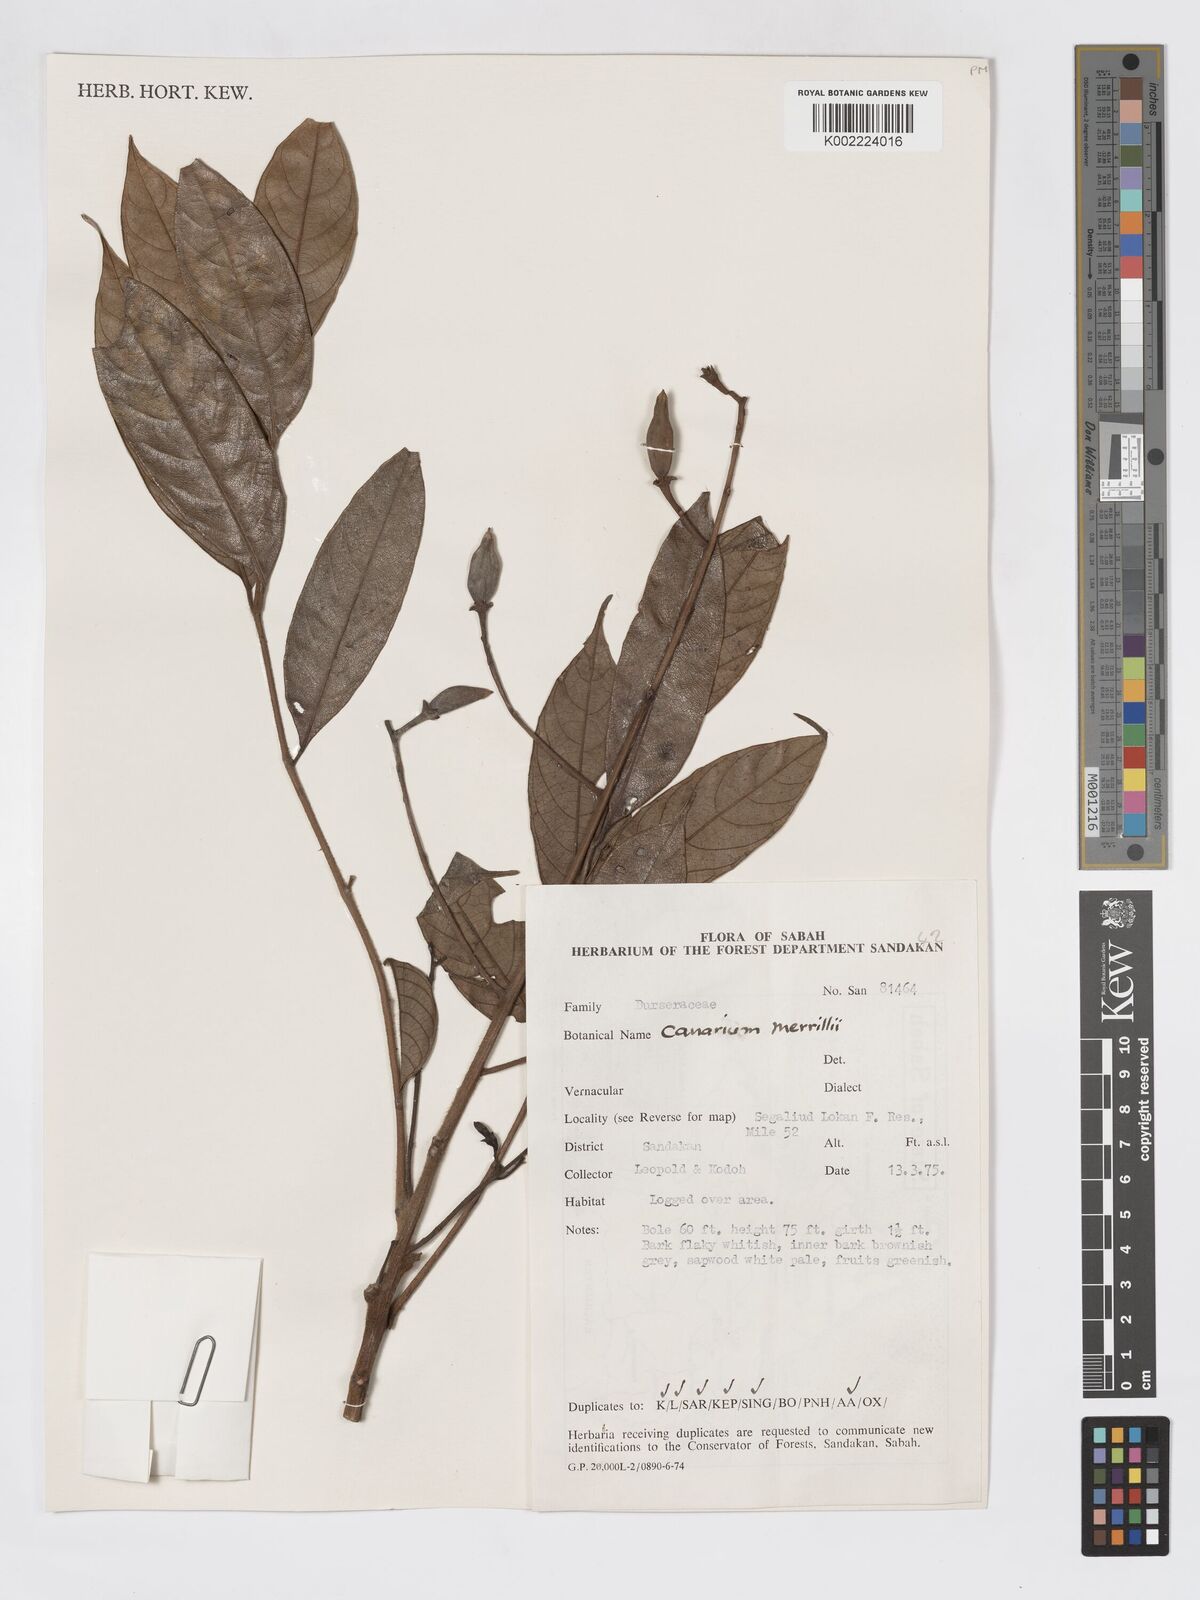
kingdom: Plantae
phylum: Tracheophyta
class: Magnoliopsida
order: Sapindales
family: Burseraceae
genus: Canarium
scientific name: Canarium merrillii
